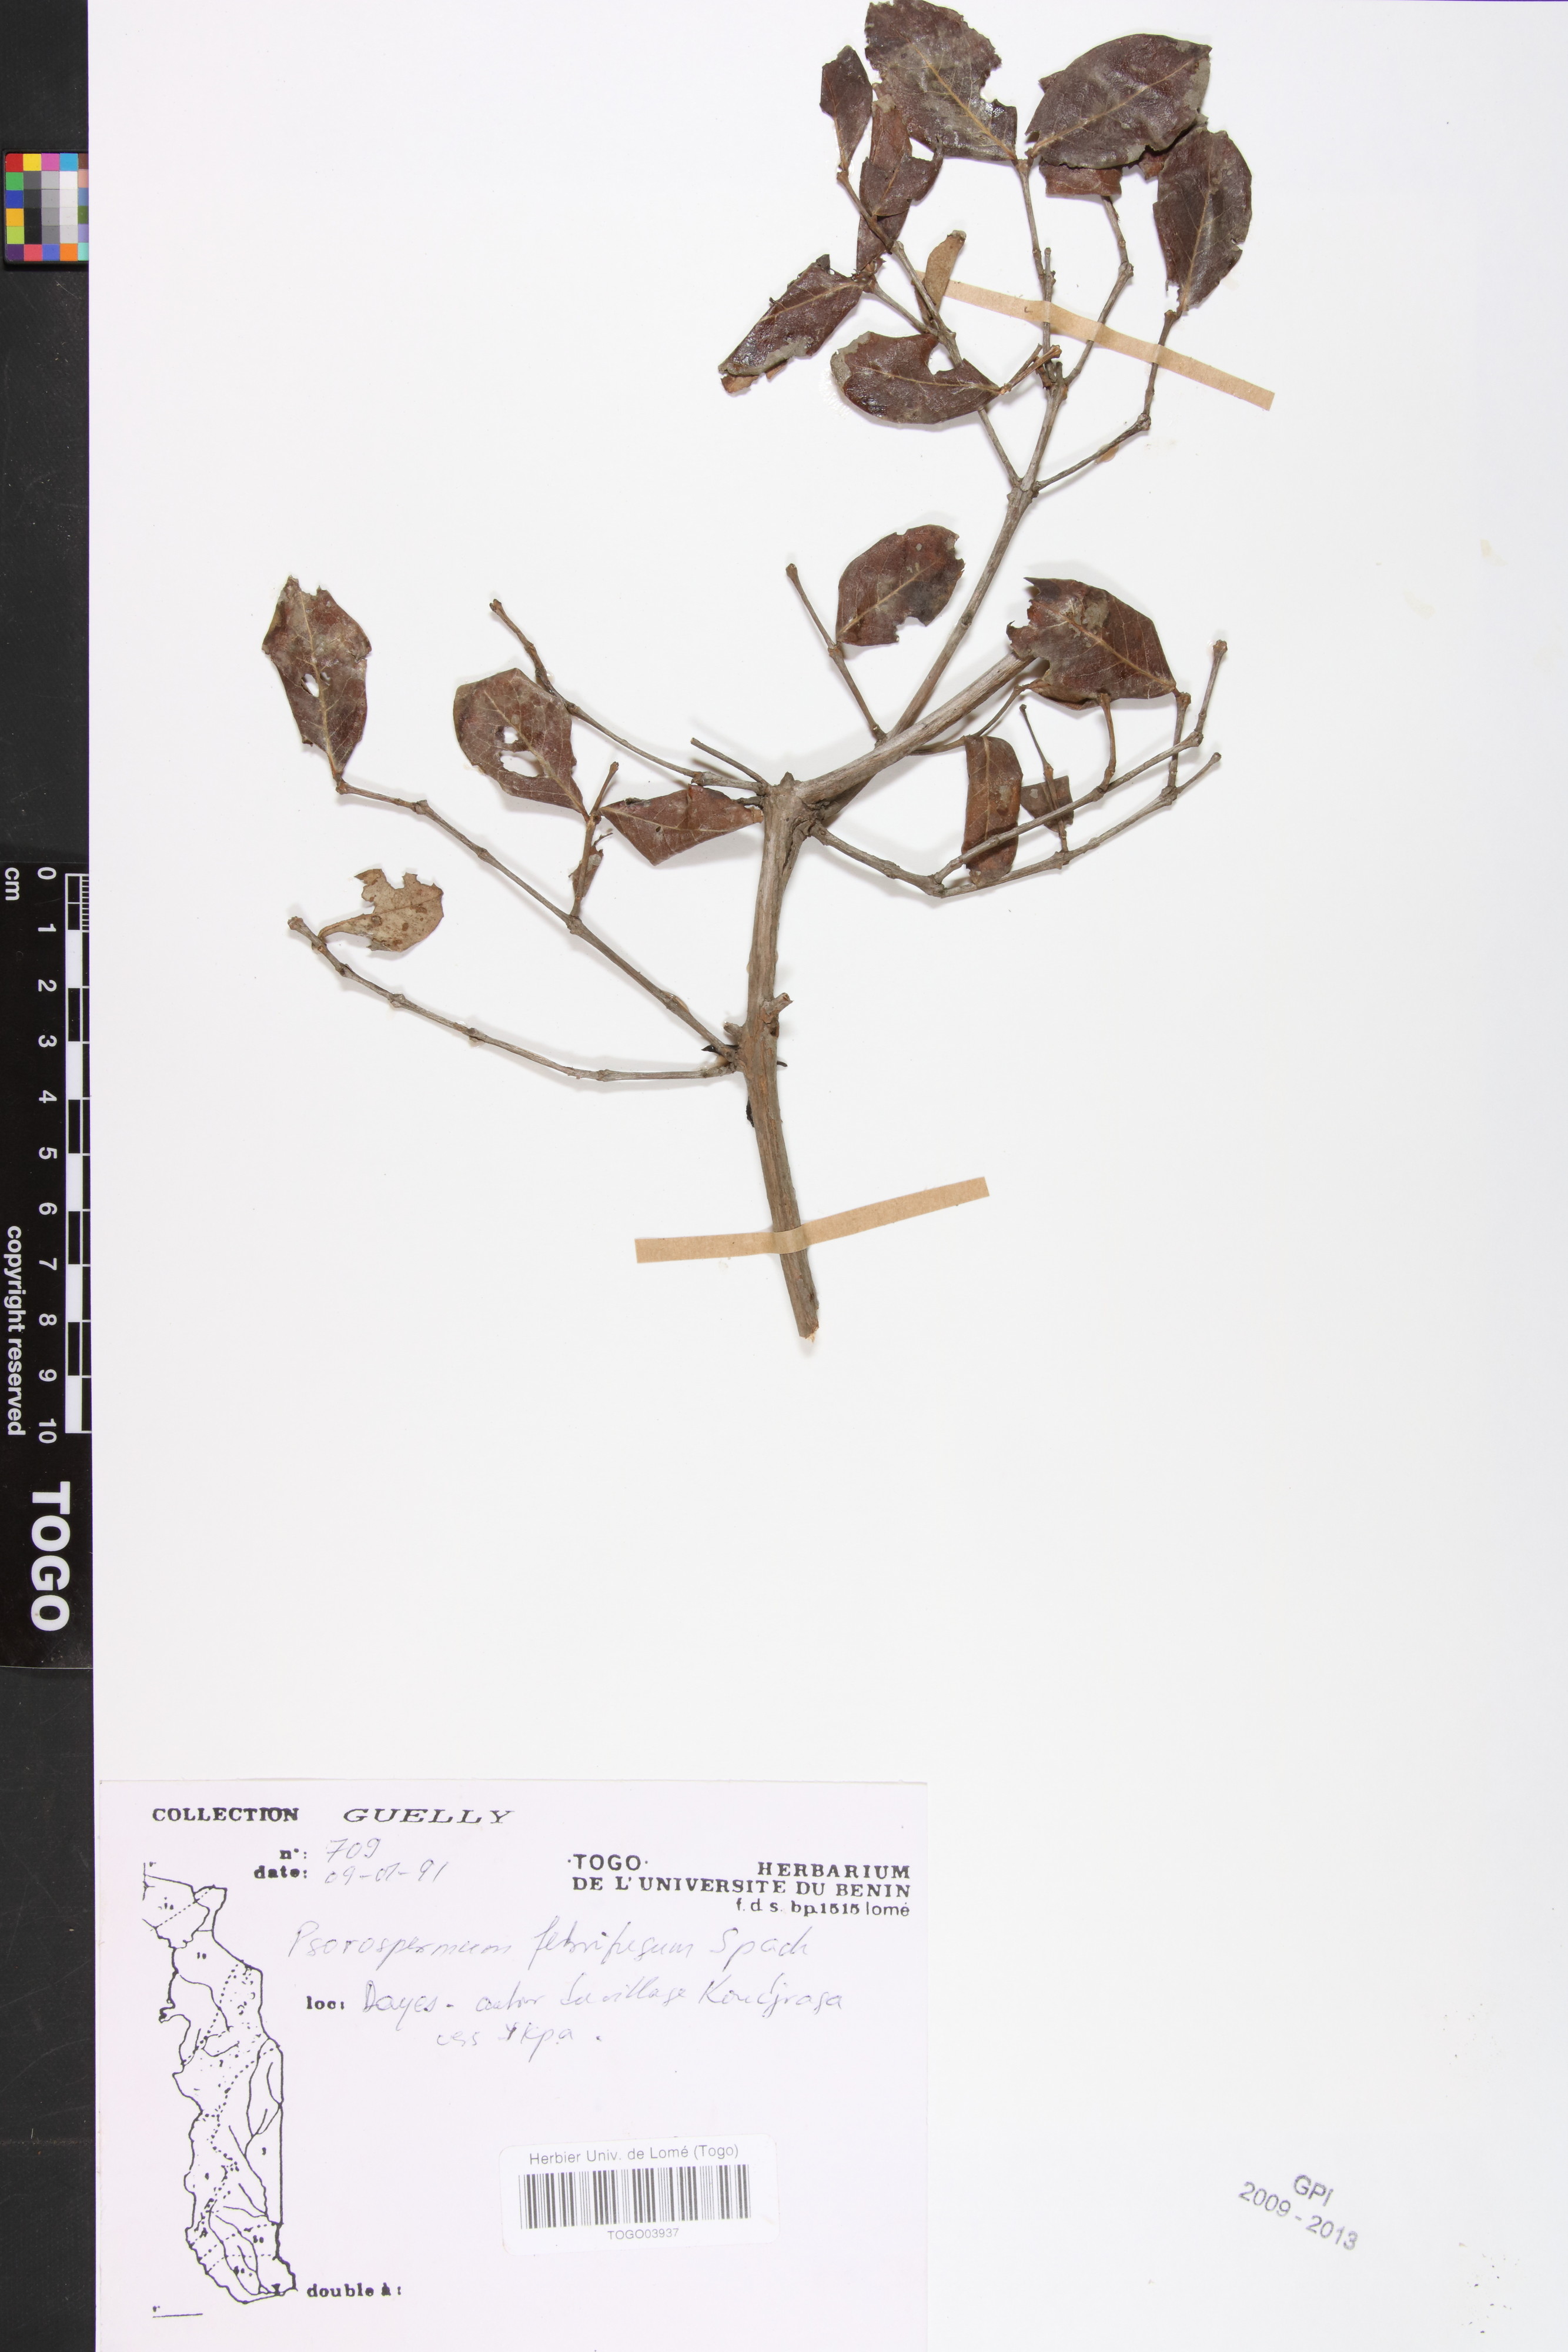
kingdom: Plantae
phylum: Tracheophyta
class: Magnoliopsida
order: Malpighiales
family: Hypericaceae
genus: Psorospermum
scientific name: Psorospermum febrifugum
